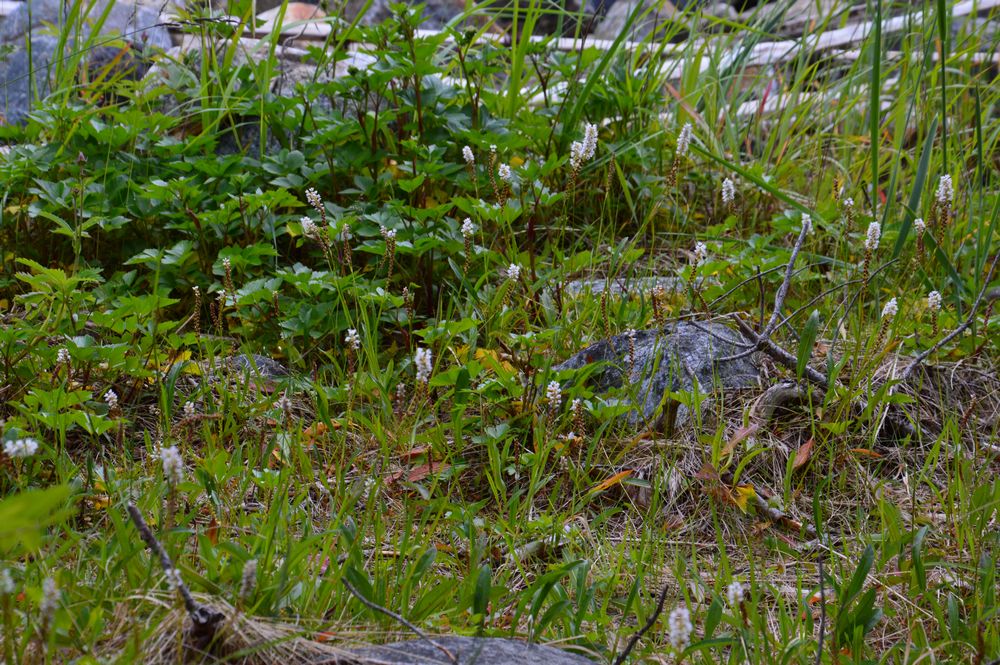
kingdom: Plantae
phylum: Tracheophyta
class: Magnoliopsida
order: Caryophyllales
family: Polygonaceae
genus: Bistorta
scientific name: Bistorta
